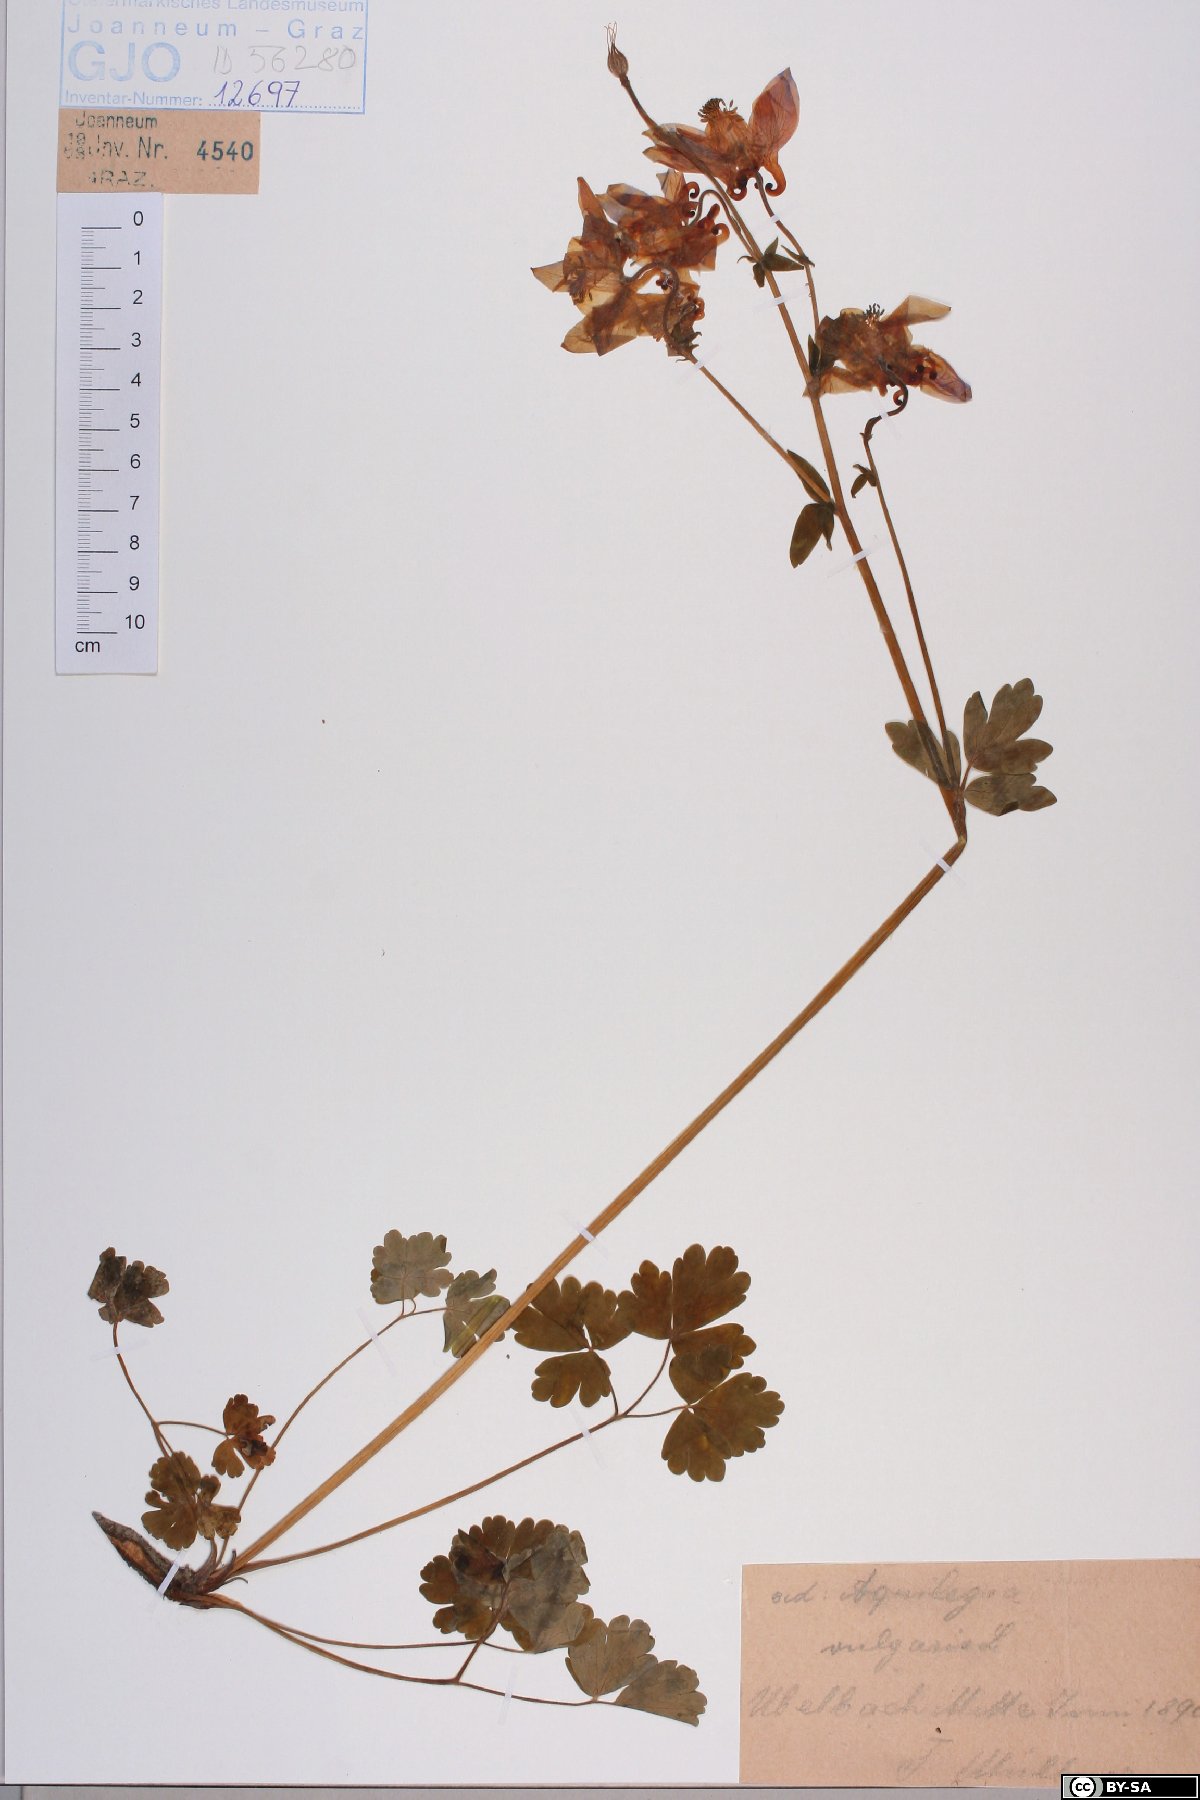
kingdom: Plantae
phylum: Tracheophyta
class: Magnoliopsida
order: Ranunculales
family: Ranunculaceae
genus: Aquilegia
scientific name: Aquilegia vulgaris
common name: Columbine
